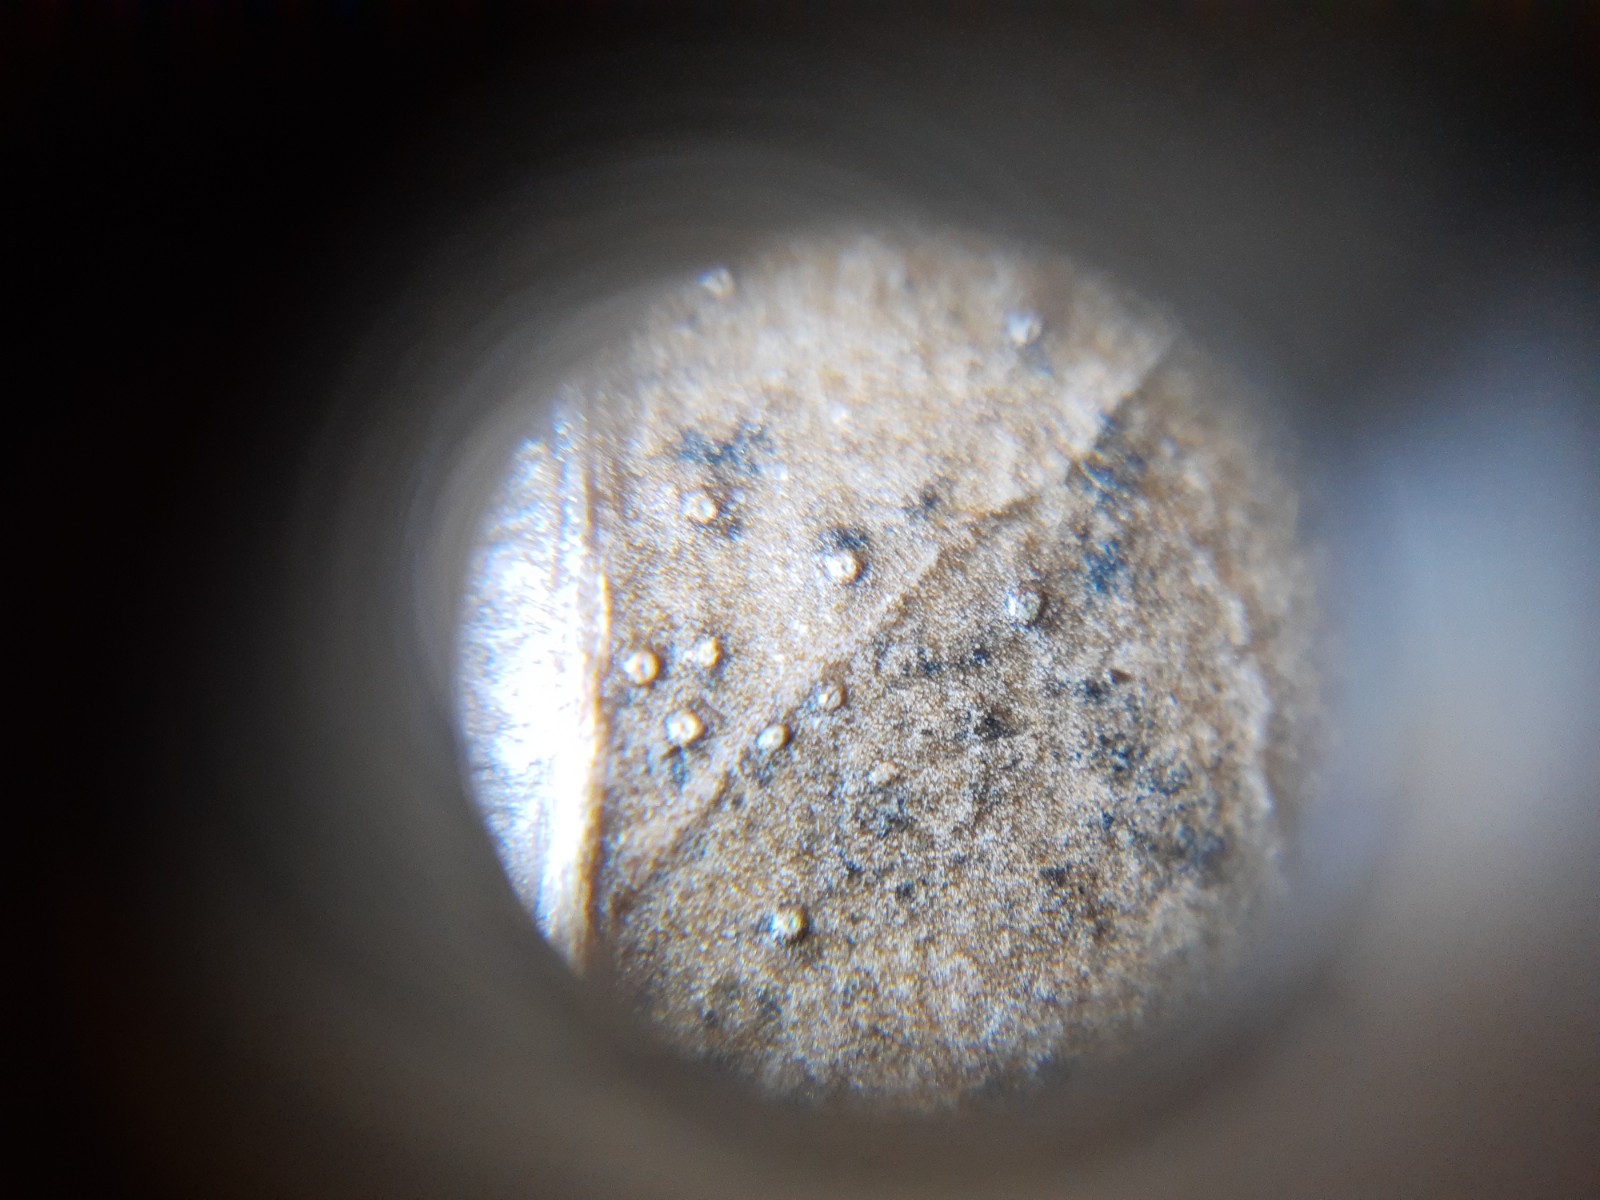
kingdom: Fungi
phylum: Ascomycota
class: Leotiomycetes
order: Phacidiales
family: Phacidiaceae
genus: Phacidium
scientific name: Phacidium lauri
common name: kristtorn-tandskive
